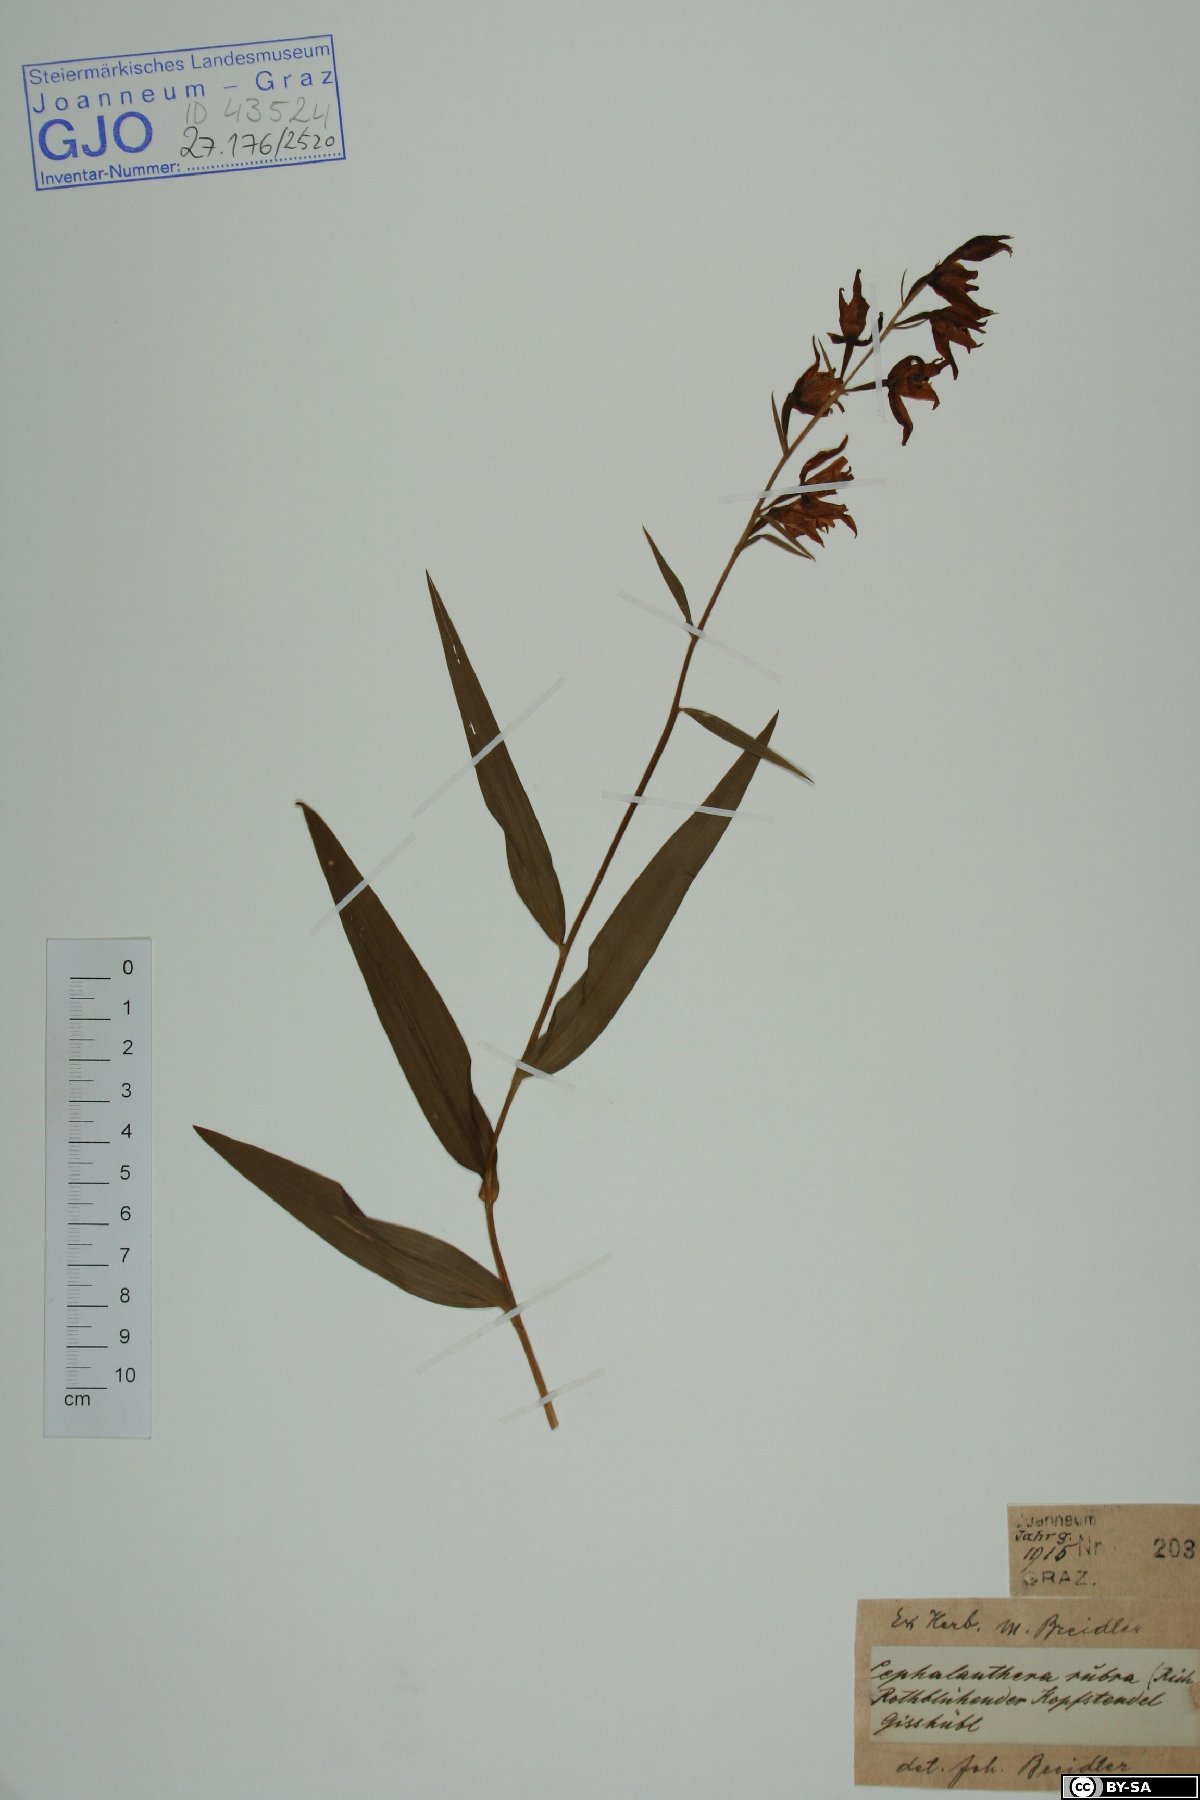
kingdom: Plantae
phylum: Tracheophyta
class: Liliopsida
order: Asparagales
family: Orchidaceae
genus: Cephalanthera
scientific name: Cephalanthera rubra
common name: Red helleborine
